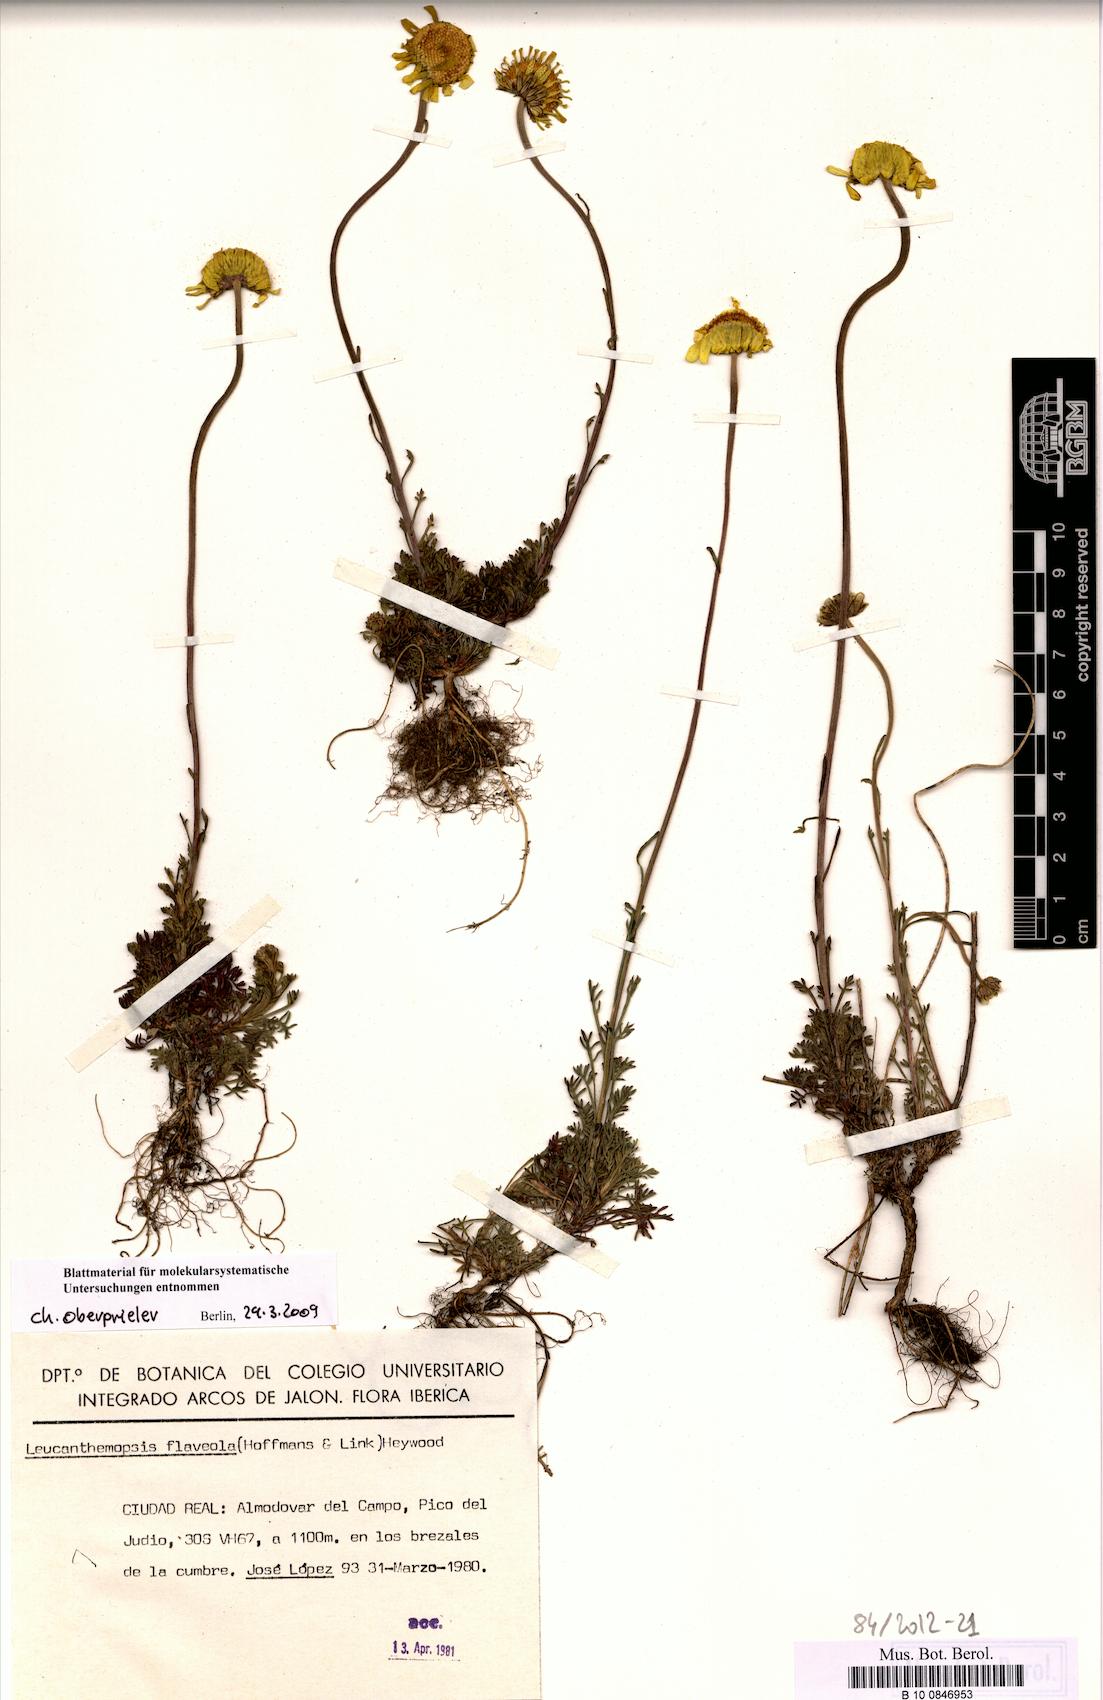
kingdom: Plantae
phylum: Tracheophyta
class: Magnoliopsida
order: Asterales
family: Asteraceae
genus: Leucanthemopsis
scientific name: Leucanthemopsis flaveola
